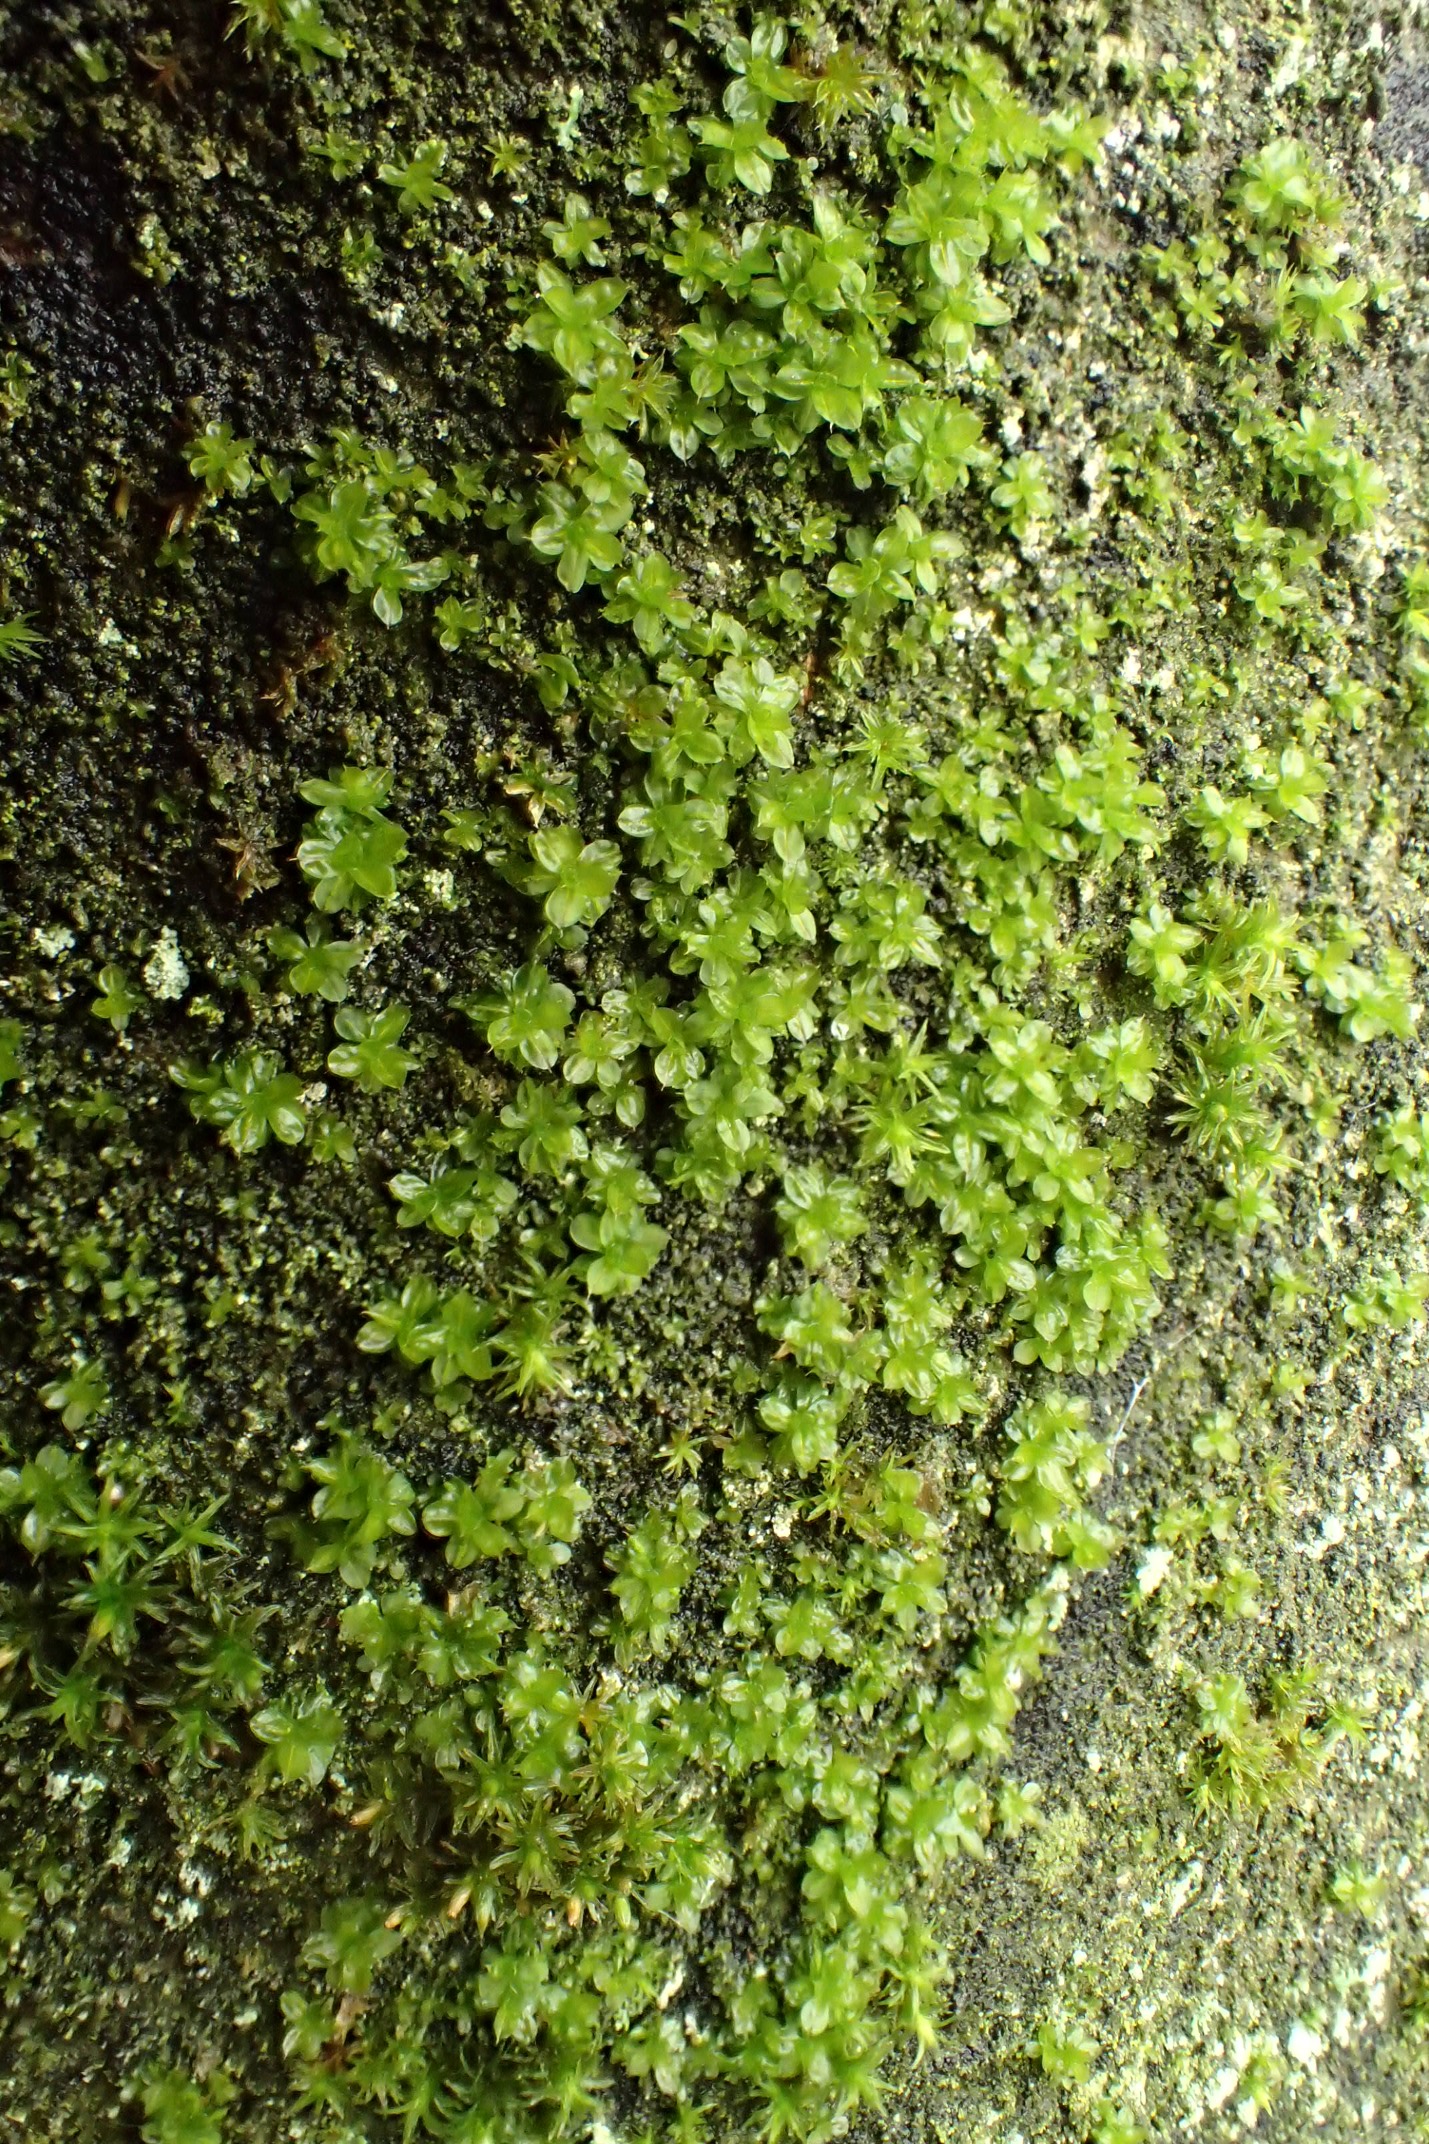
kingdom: Plantae
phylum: Bryophyta
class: Bryopsida
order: Pottiales
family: Pottiaceae
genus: Syntrichia
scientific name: Syntrichia papillosa
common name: Bark-hårstjerne
